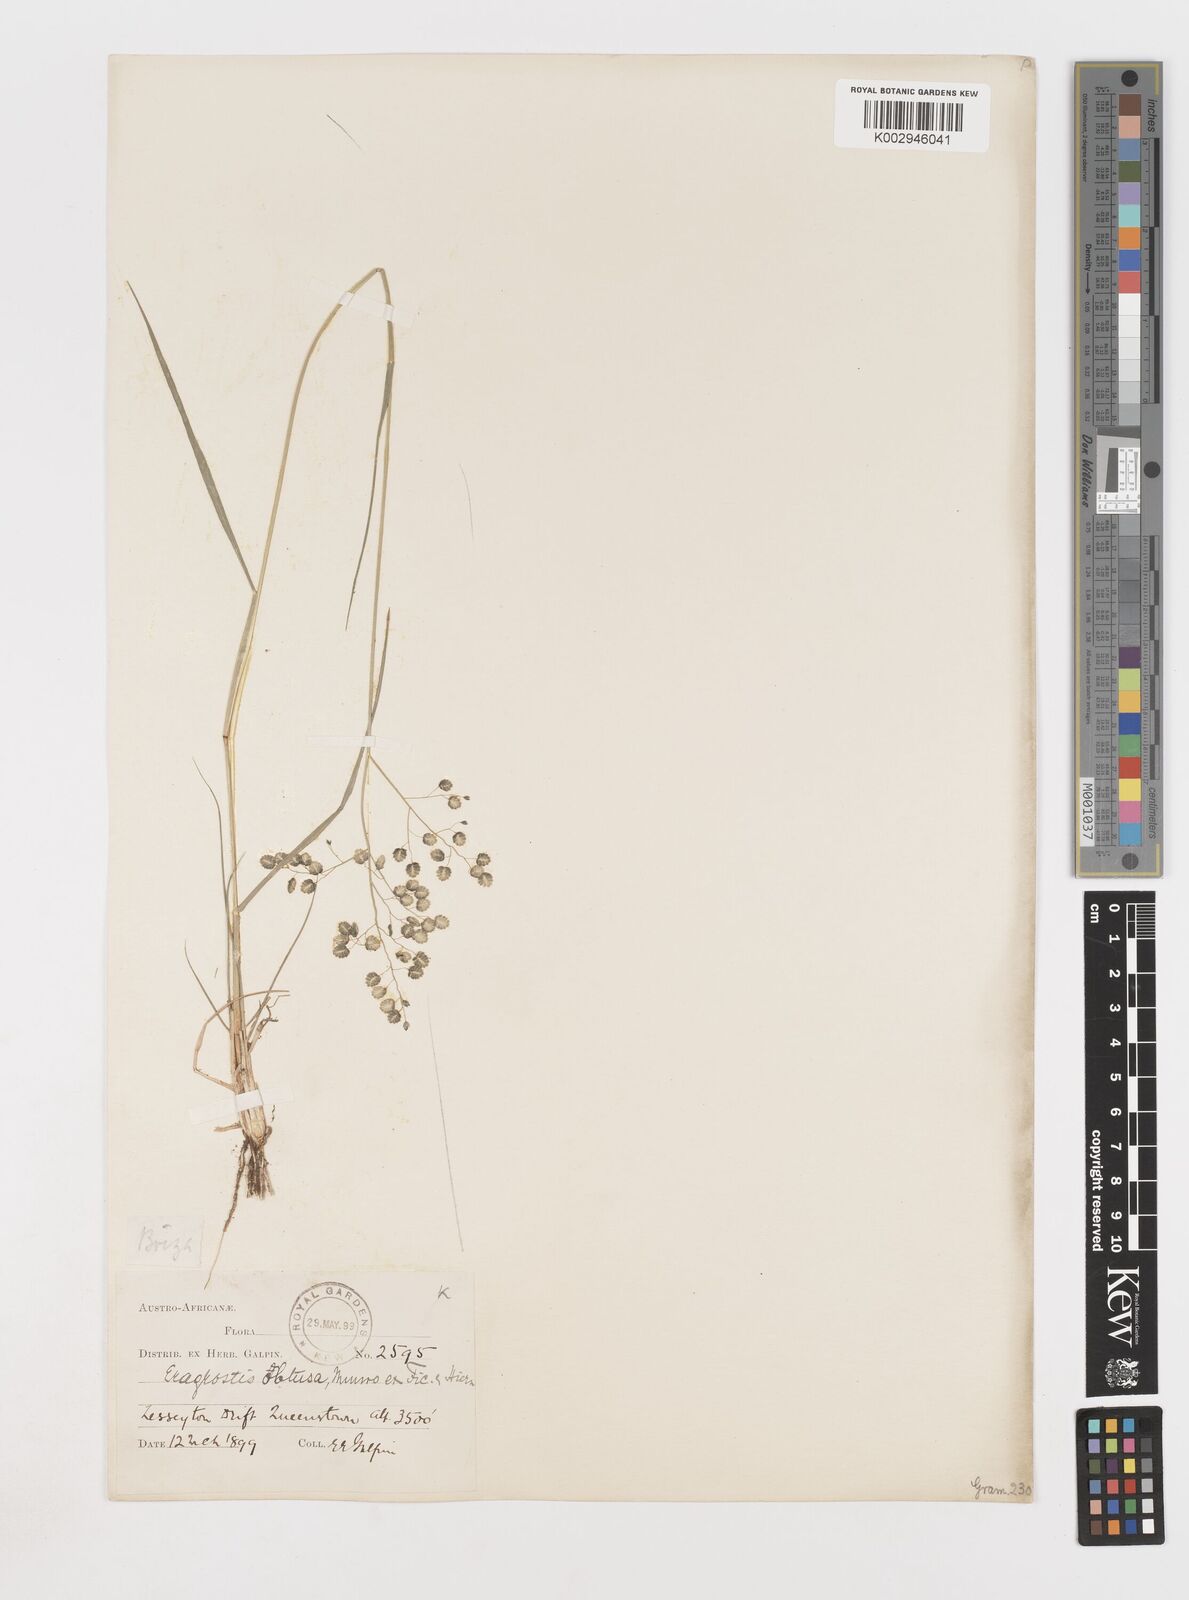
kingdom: Plantae
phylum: Tracheophyta
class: Liliopsida
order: Poales
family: Poaceae
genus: Eragrostis
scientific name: Eragrostis obtusa
